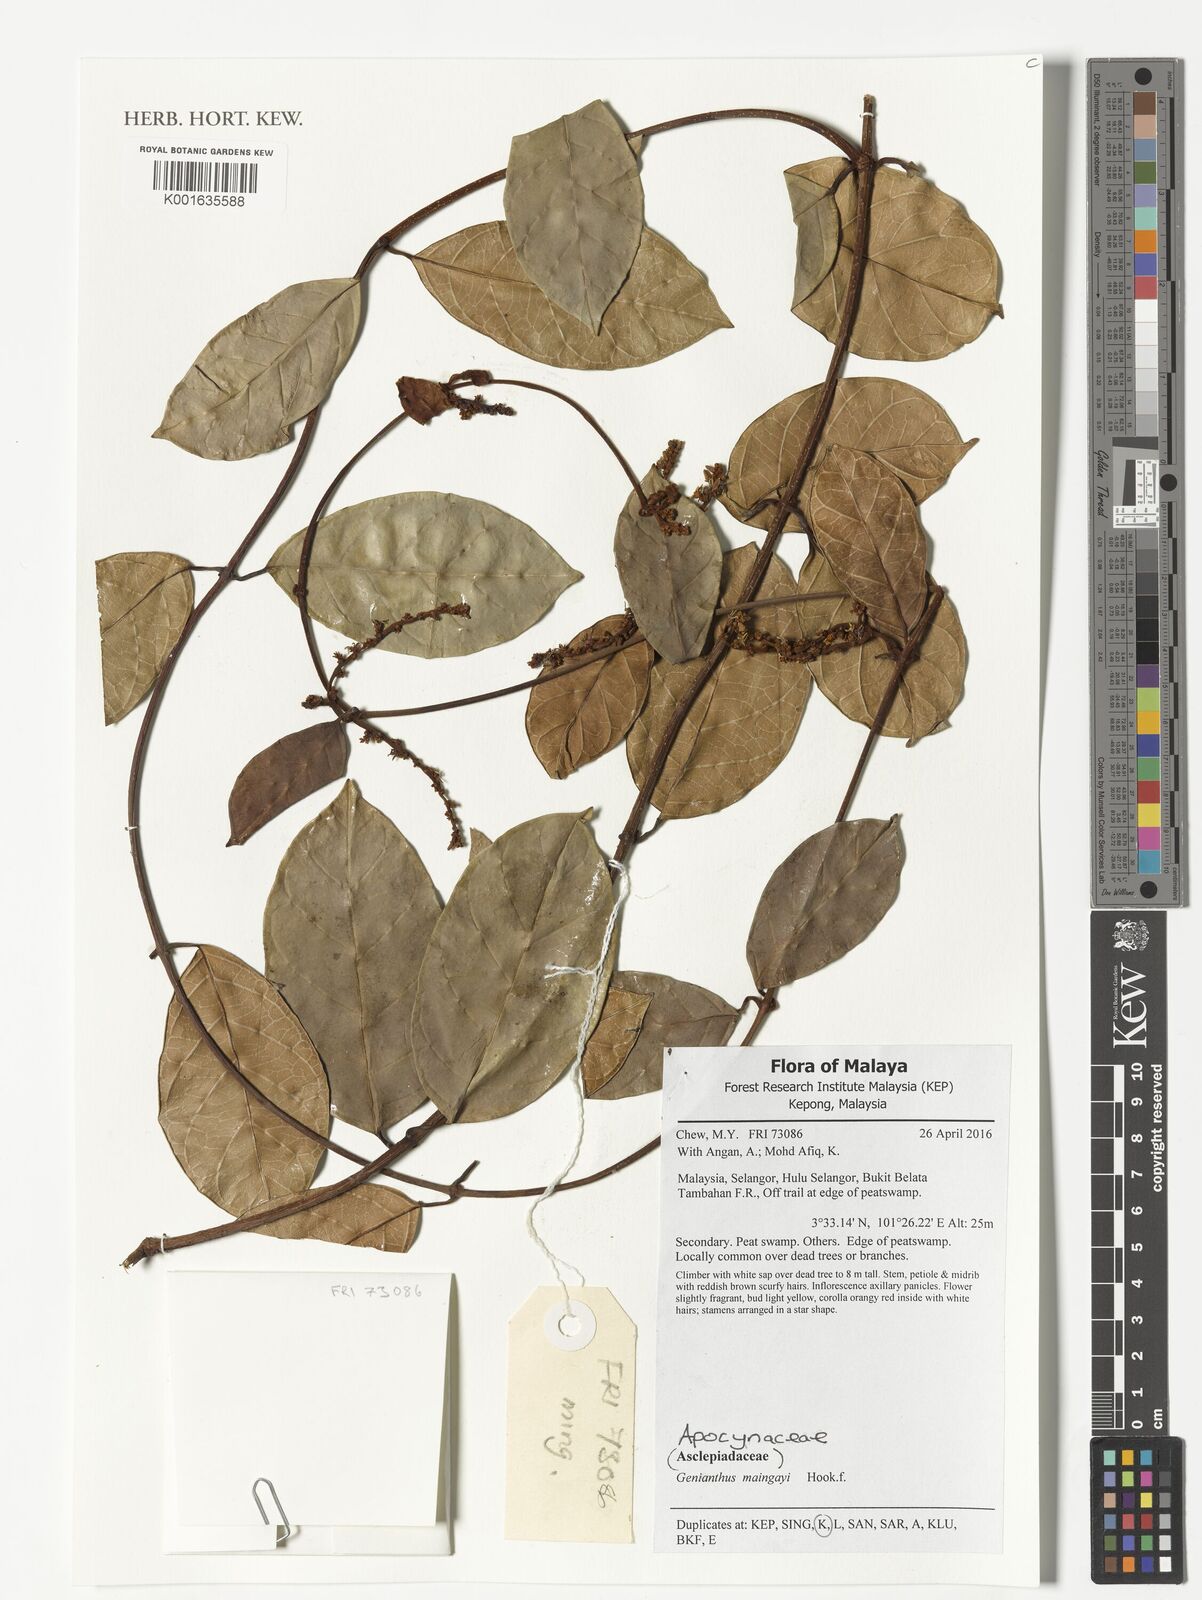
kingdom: Plantae
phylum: Tracheophyta
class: Magnoliopsida
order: Gentianales
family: Apocynaceae
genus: Secamone
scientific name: Secamone maingayi
